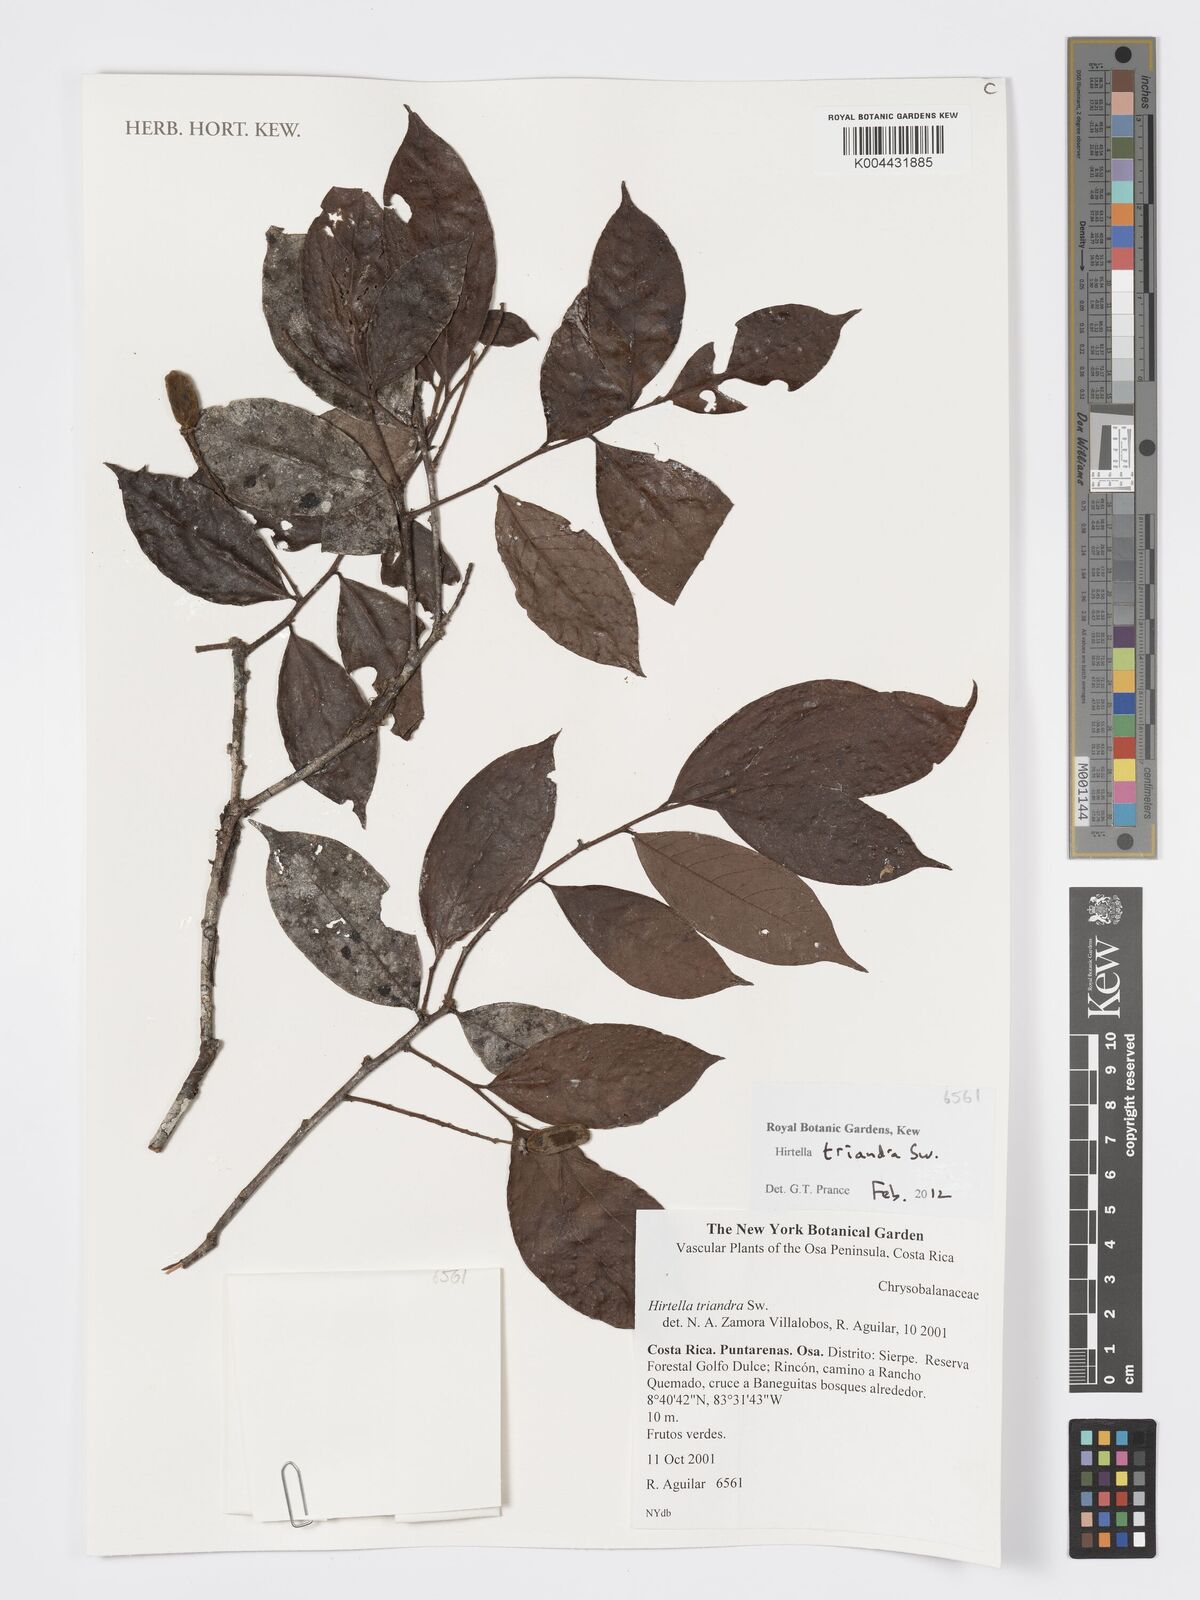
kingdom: Plantae
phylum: Tracheophyta
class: Magnoliopsida
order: Malpighiales
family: Chrysobalanaceae
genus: Hirtella
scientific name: Hirtella triandra
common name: Hairy plum
